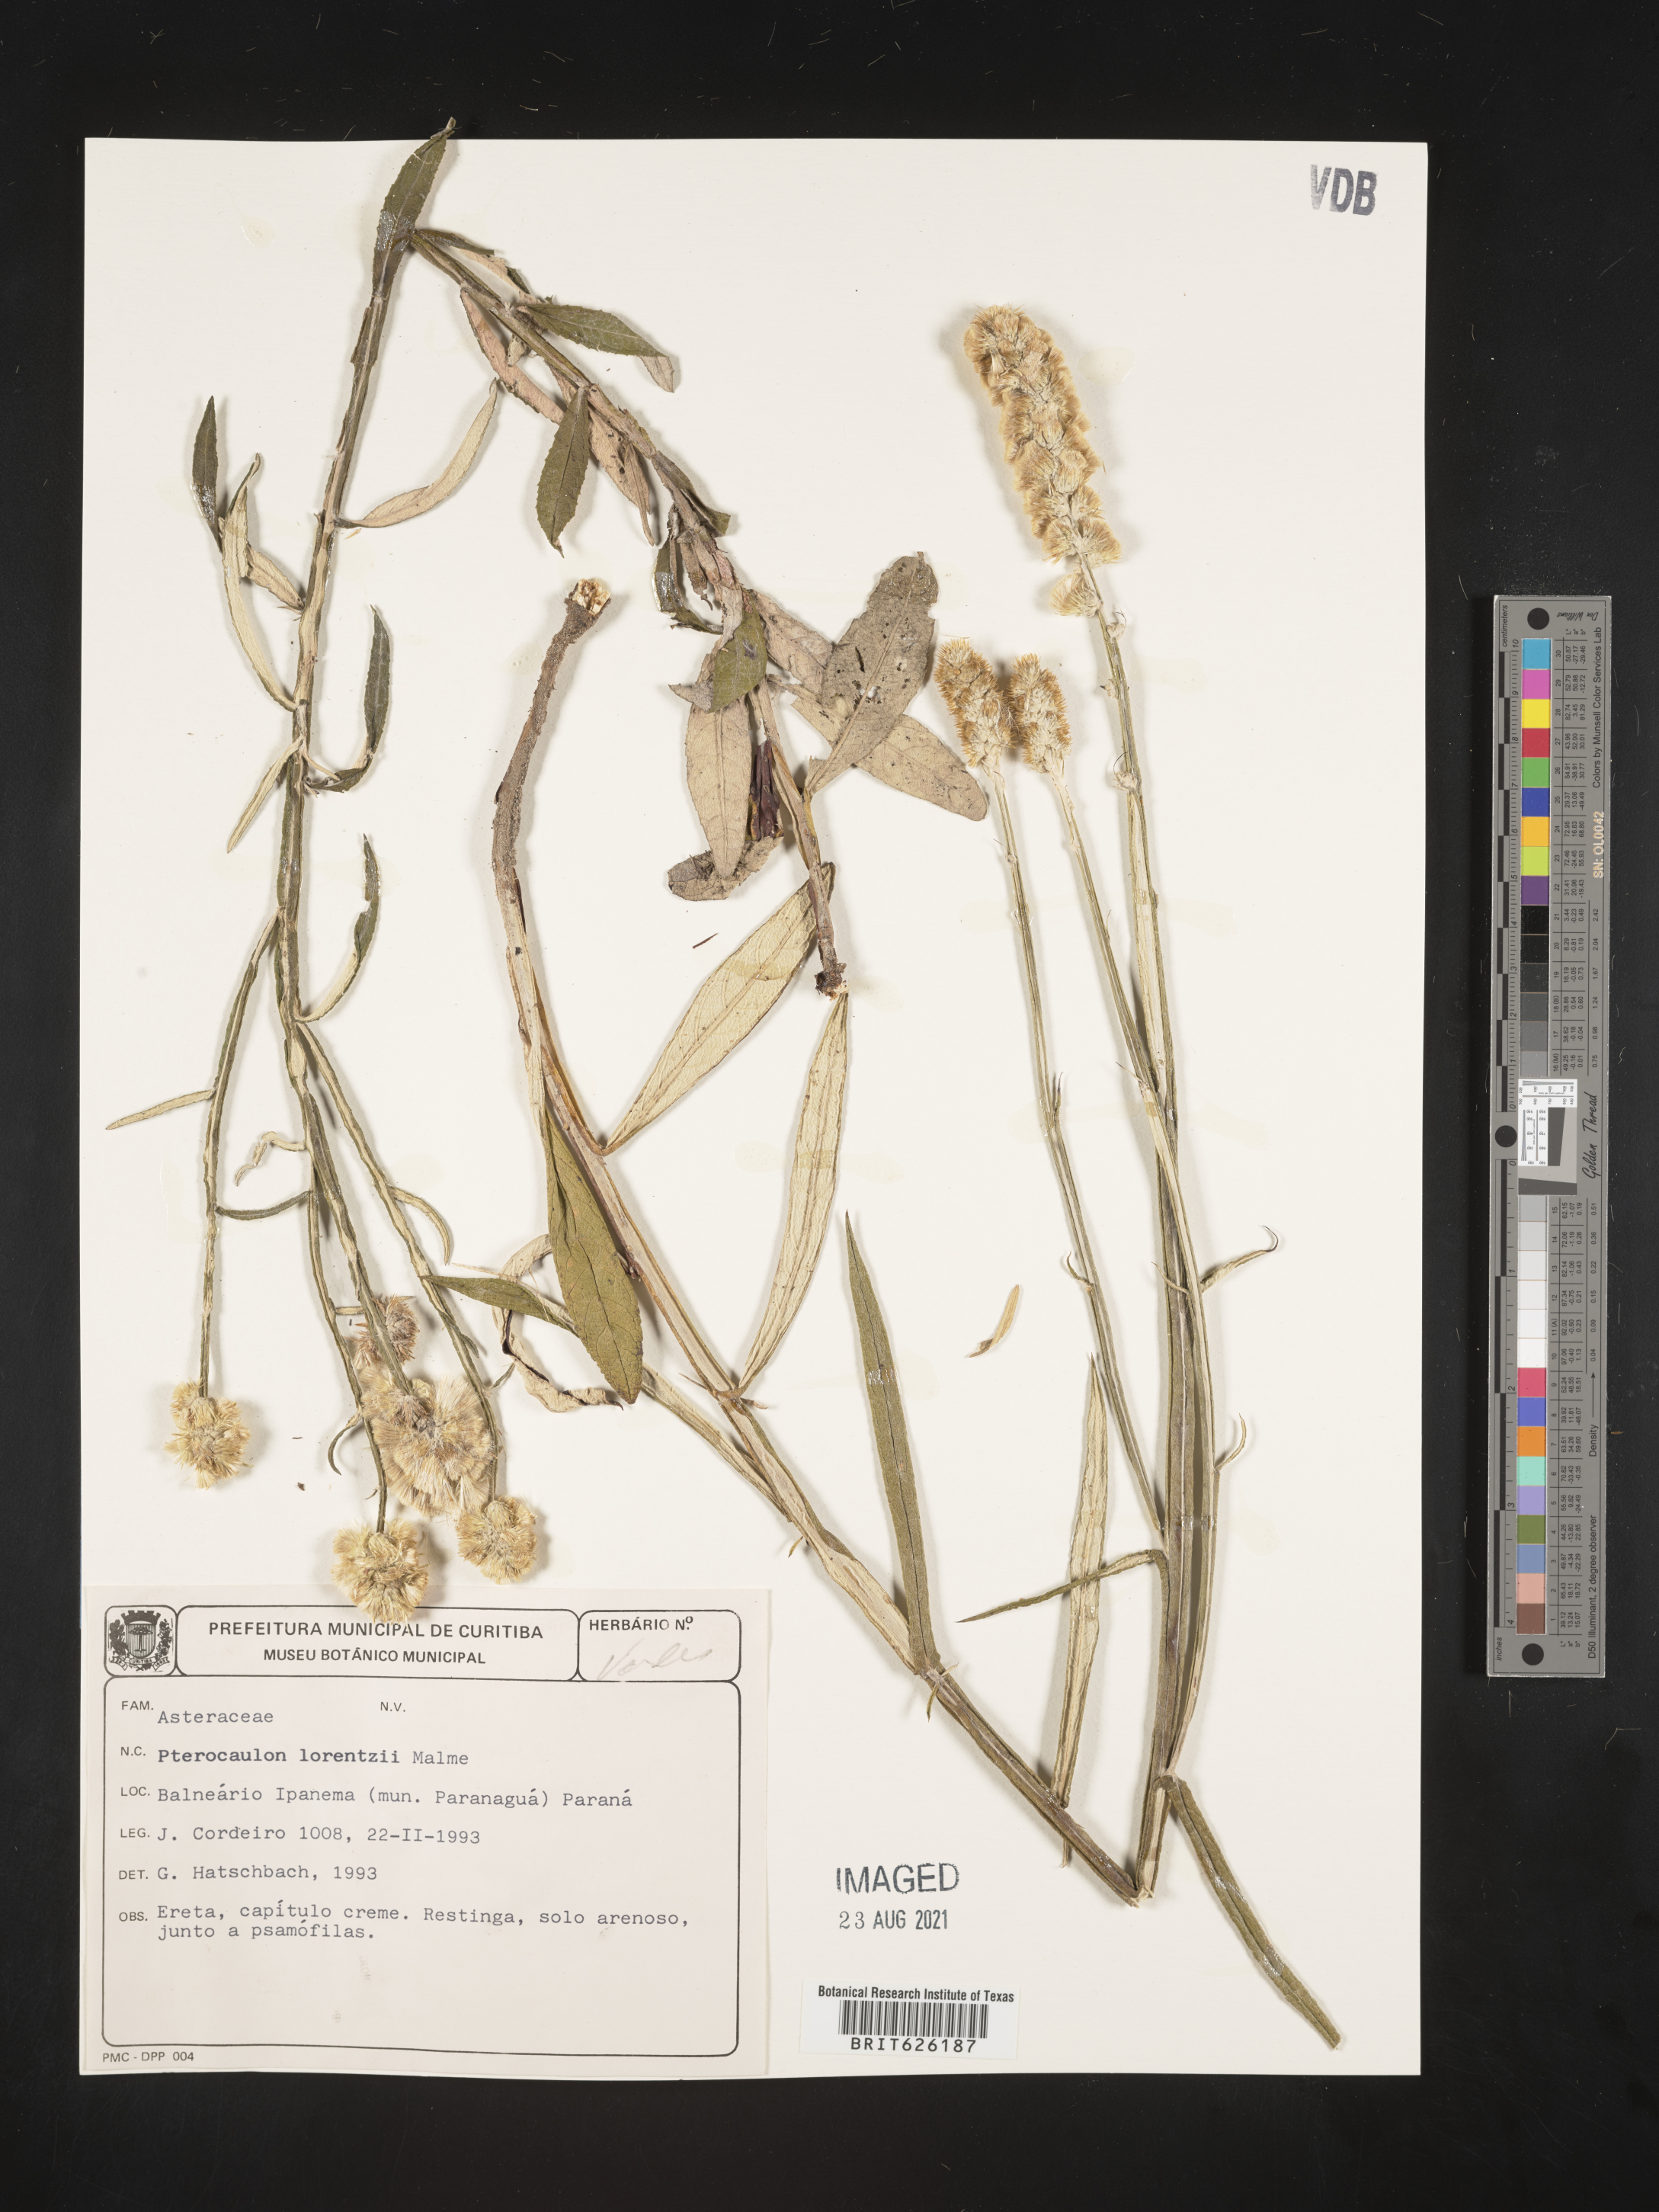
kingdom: Plantae
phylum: Tracheophyta
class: Magnoliopsida
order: Asterales
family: Asteraceae
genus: Pterocaulon
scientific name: Pterocaulon lorentzii
